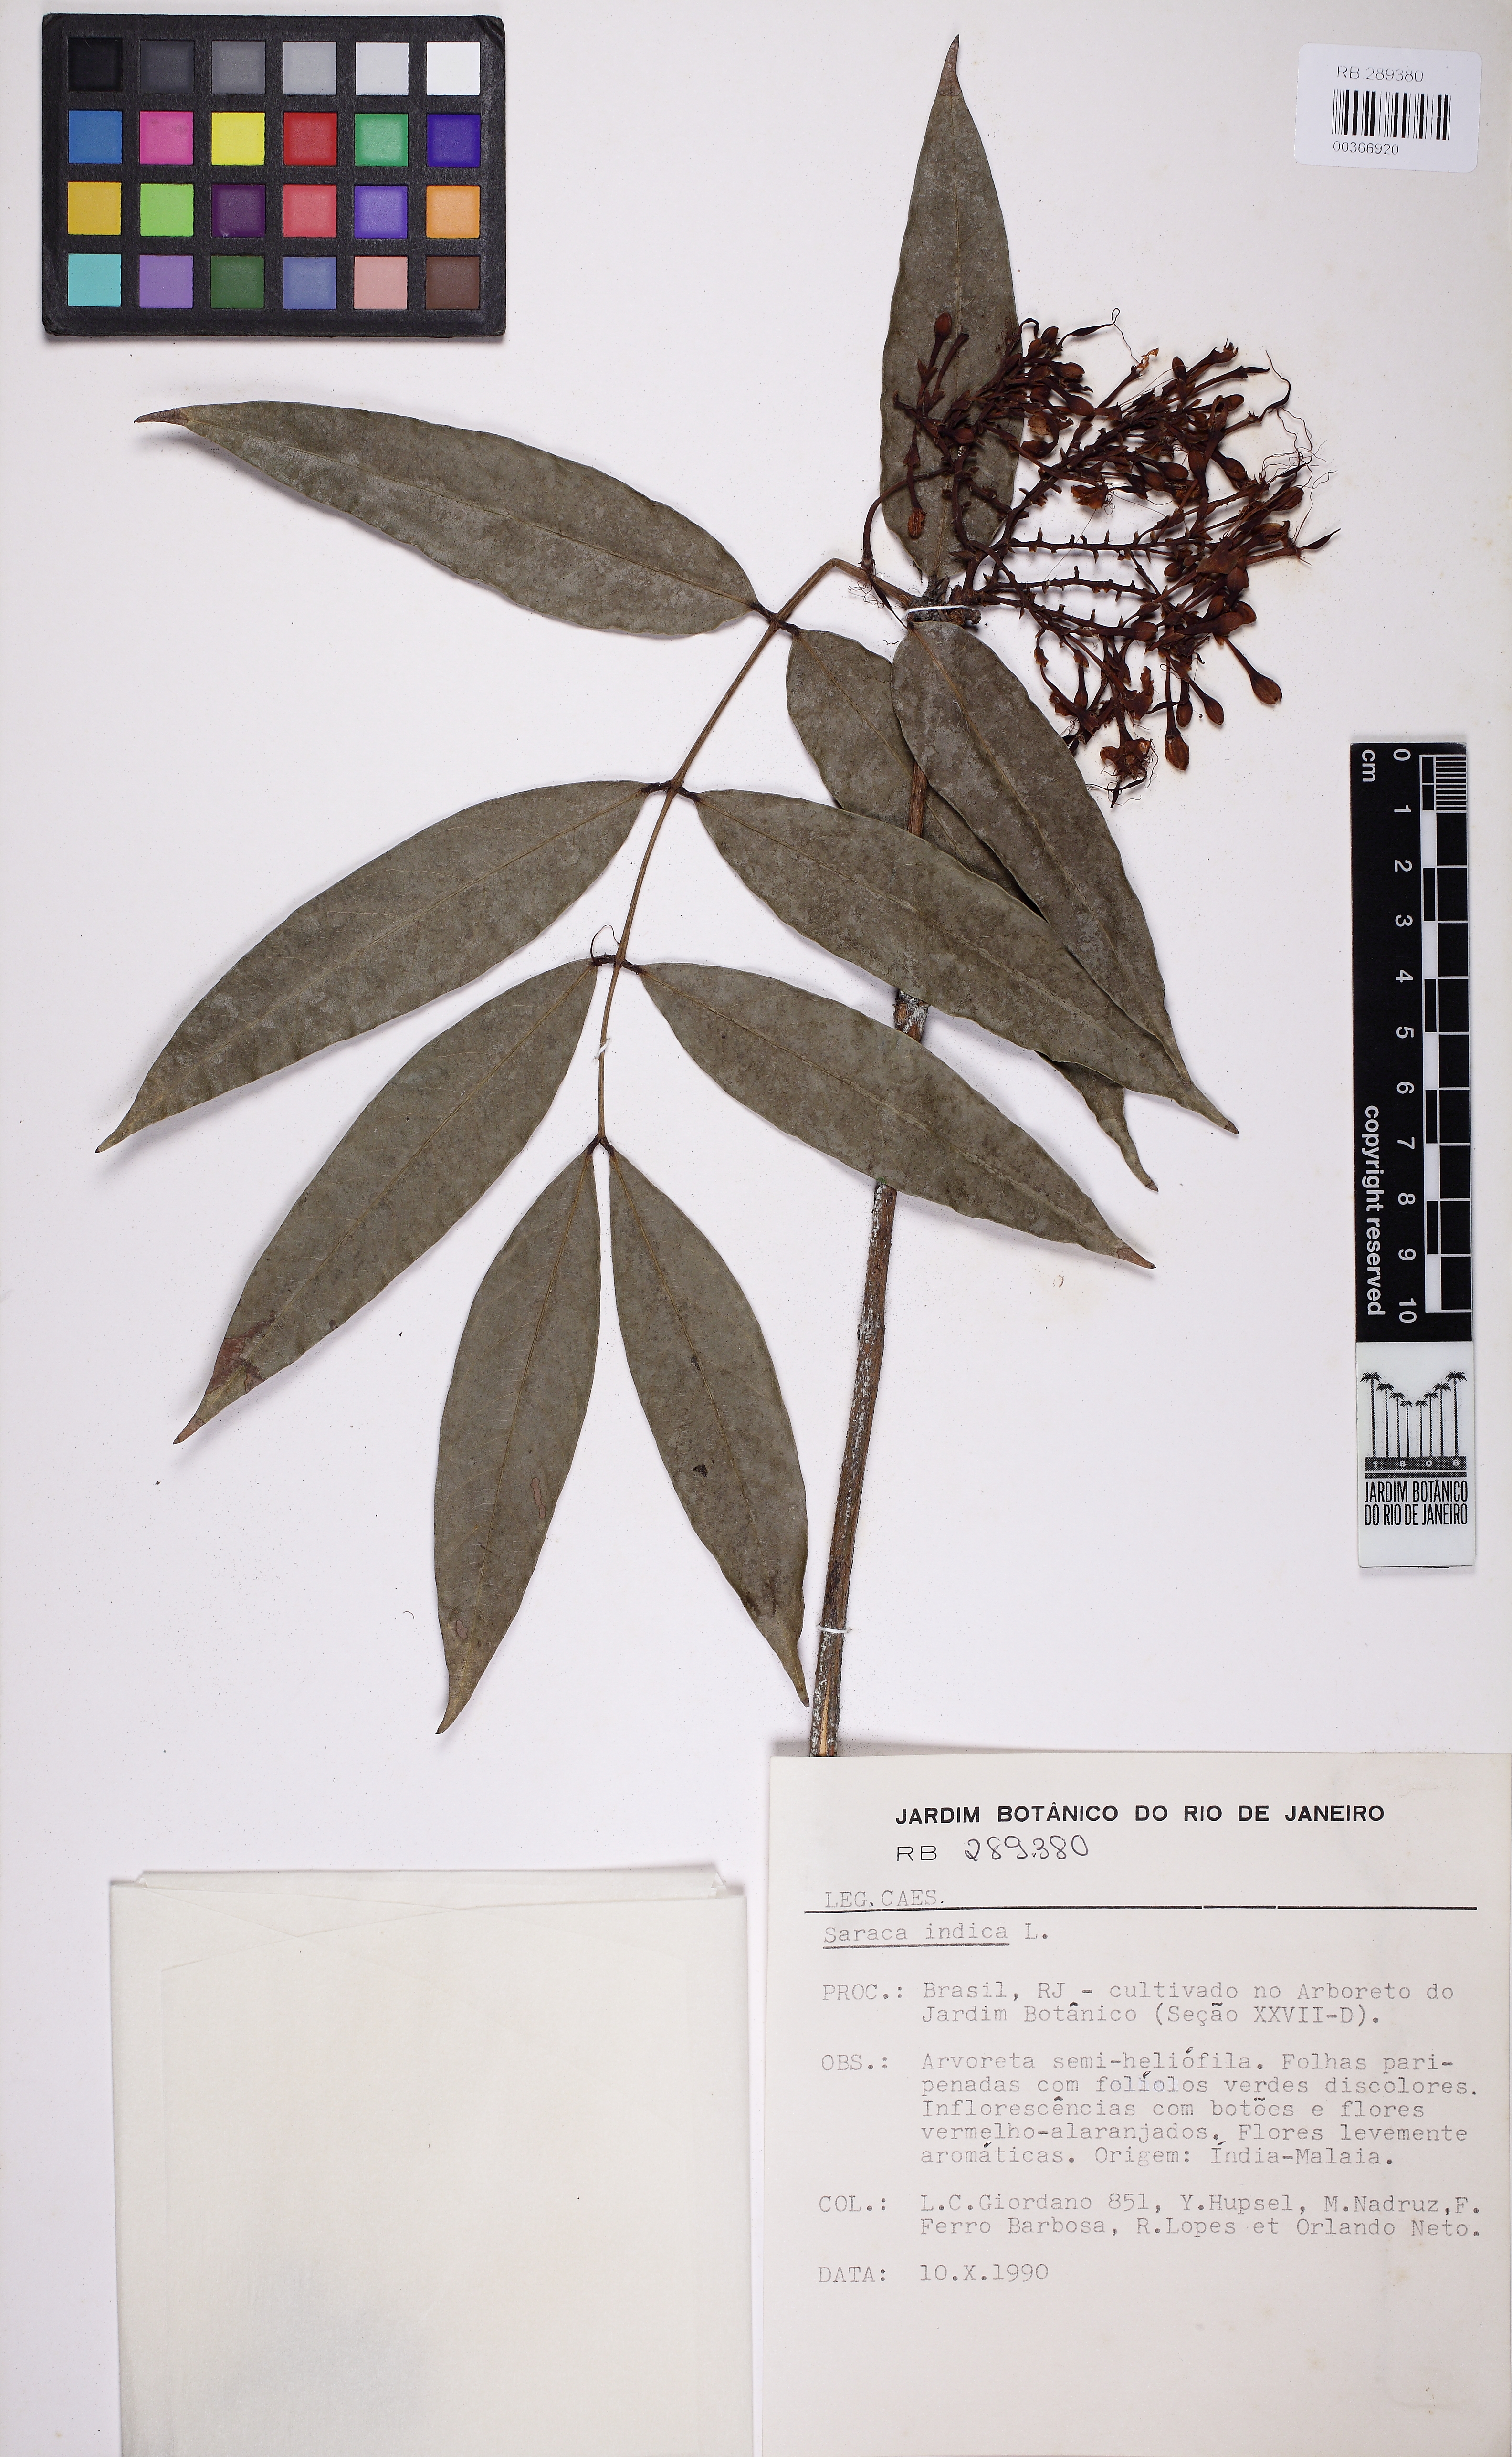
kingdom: Plantae
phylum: Tracheophyta
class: Magnoliopsida
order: Fabales
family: Fabaceae
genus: Saraca
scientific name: Saraca indica
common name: Asoka-tree
